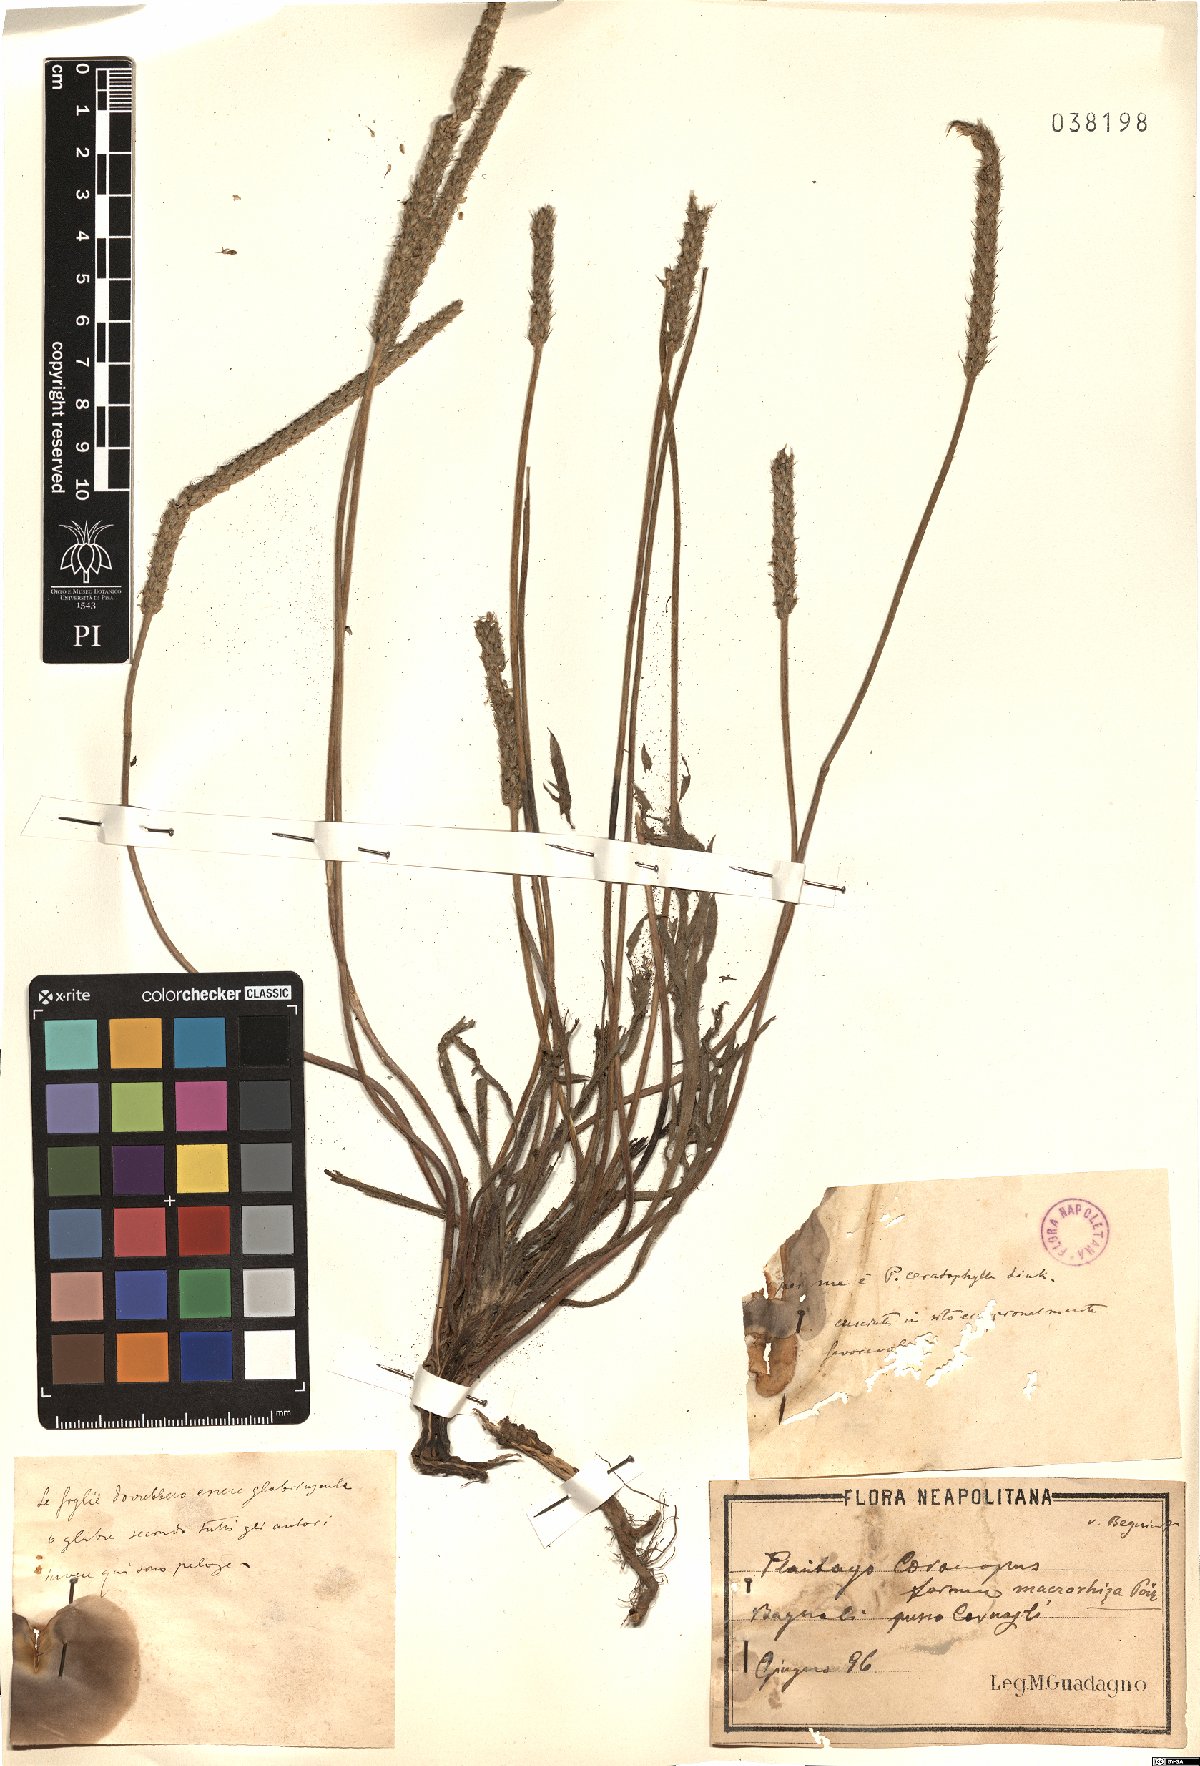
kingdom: Plantae
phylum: Tracheophyta
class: Magnoliopsida
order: Lamiales
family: Plantaginaceae
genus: Plantago
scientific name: Plantago coronopus
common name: Buck's-horn plantain
